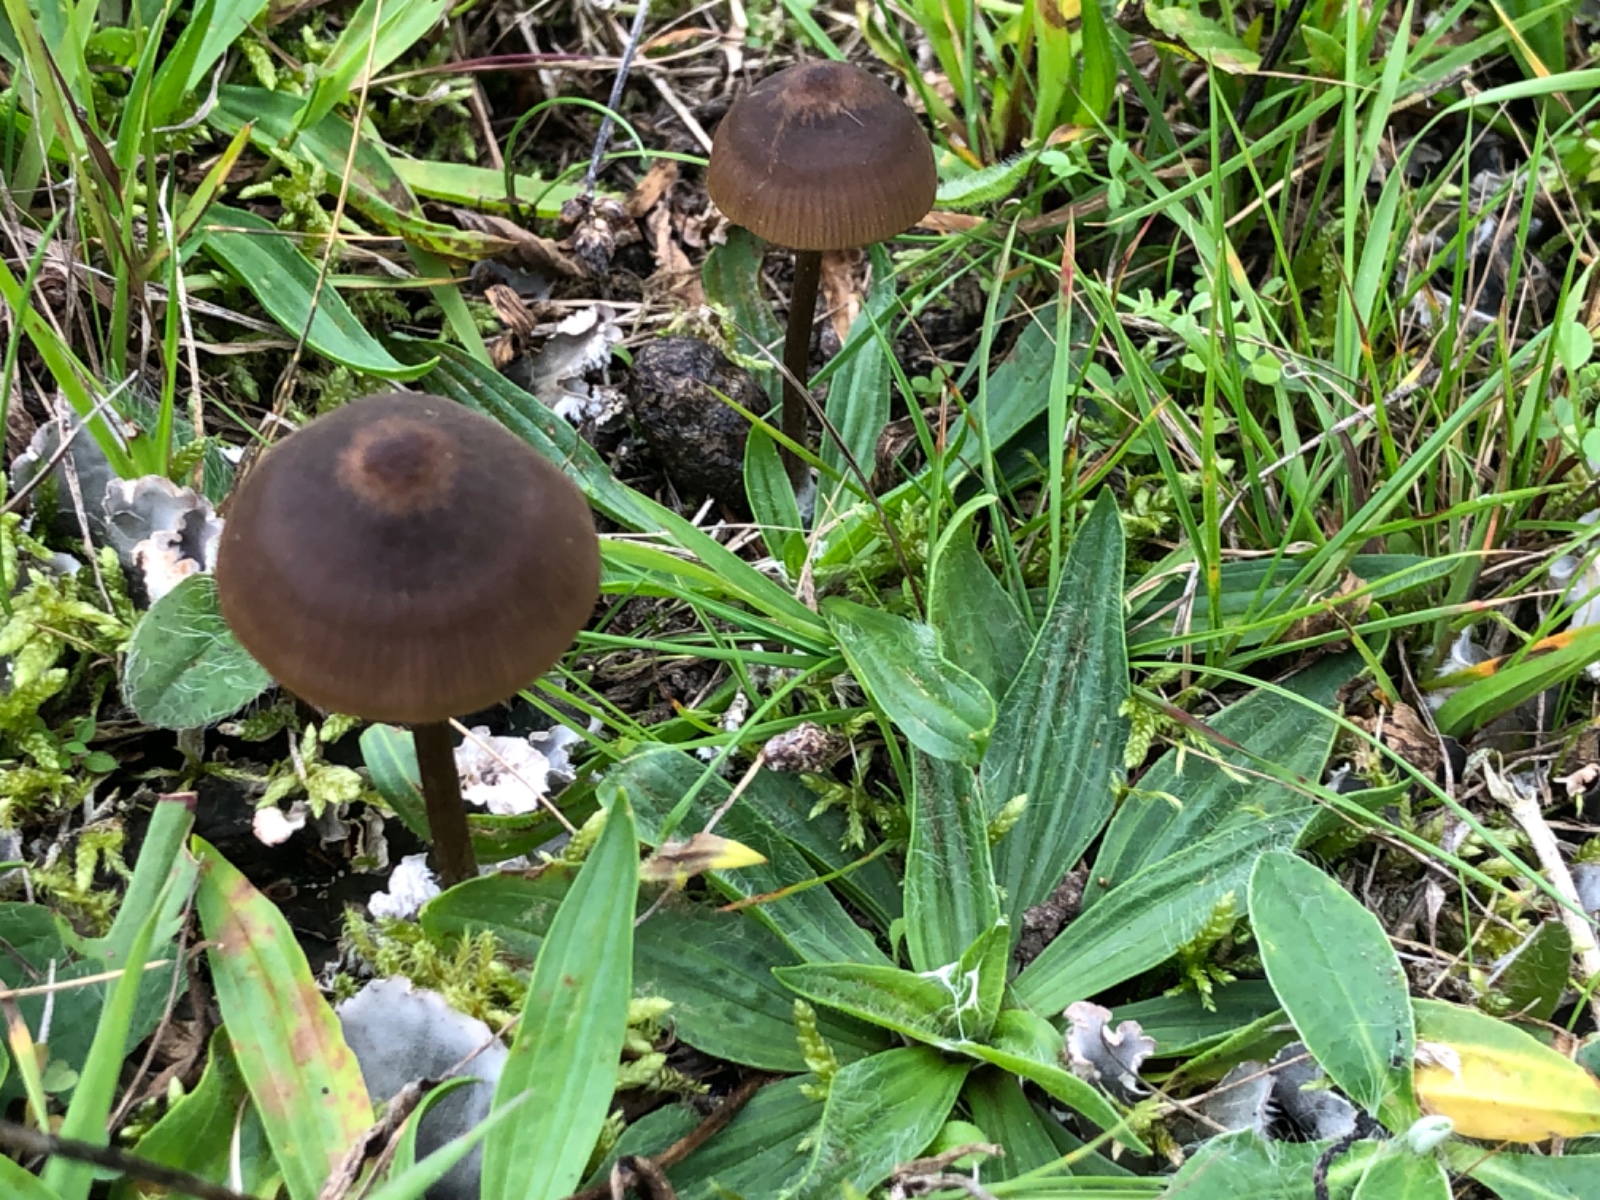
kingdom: Fungi
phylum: Basidiomycota
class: Agaricomycetes
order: Agaricales
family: Entolomataceae
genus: Entoloma
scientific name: Entoloma clandestinum
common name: tykbladet rødblad
